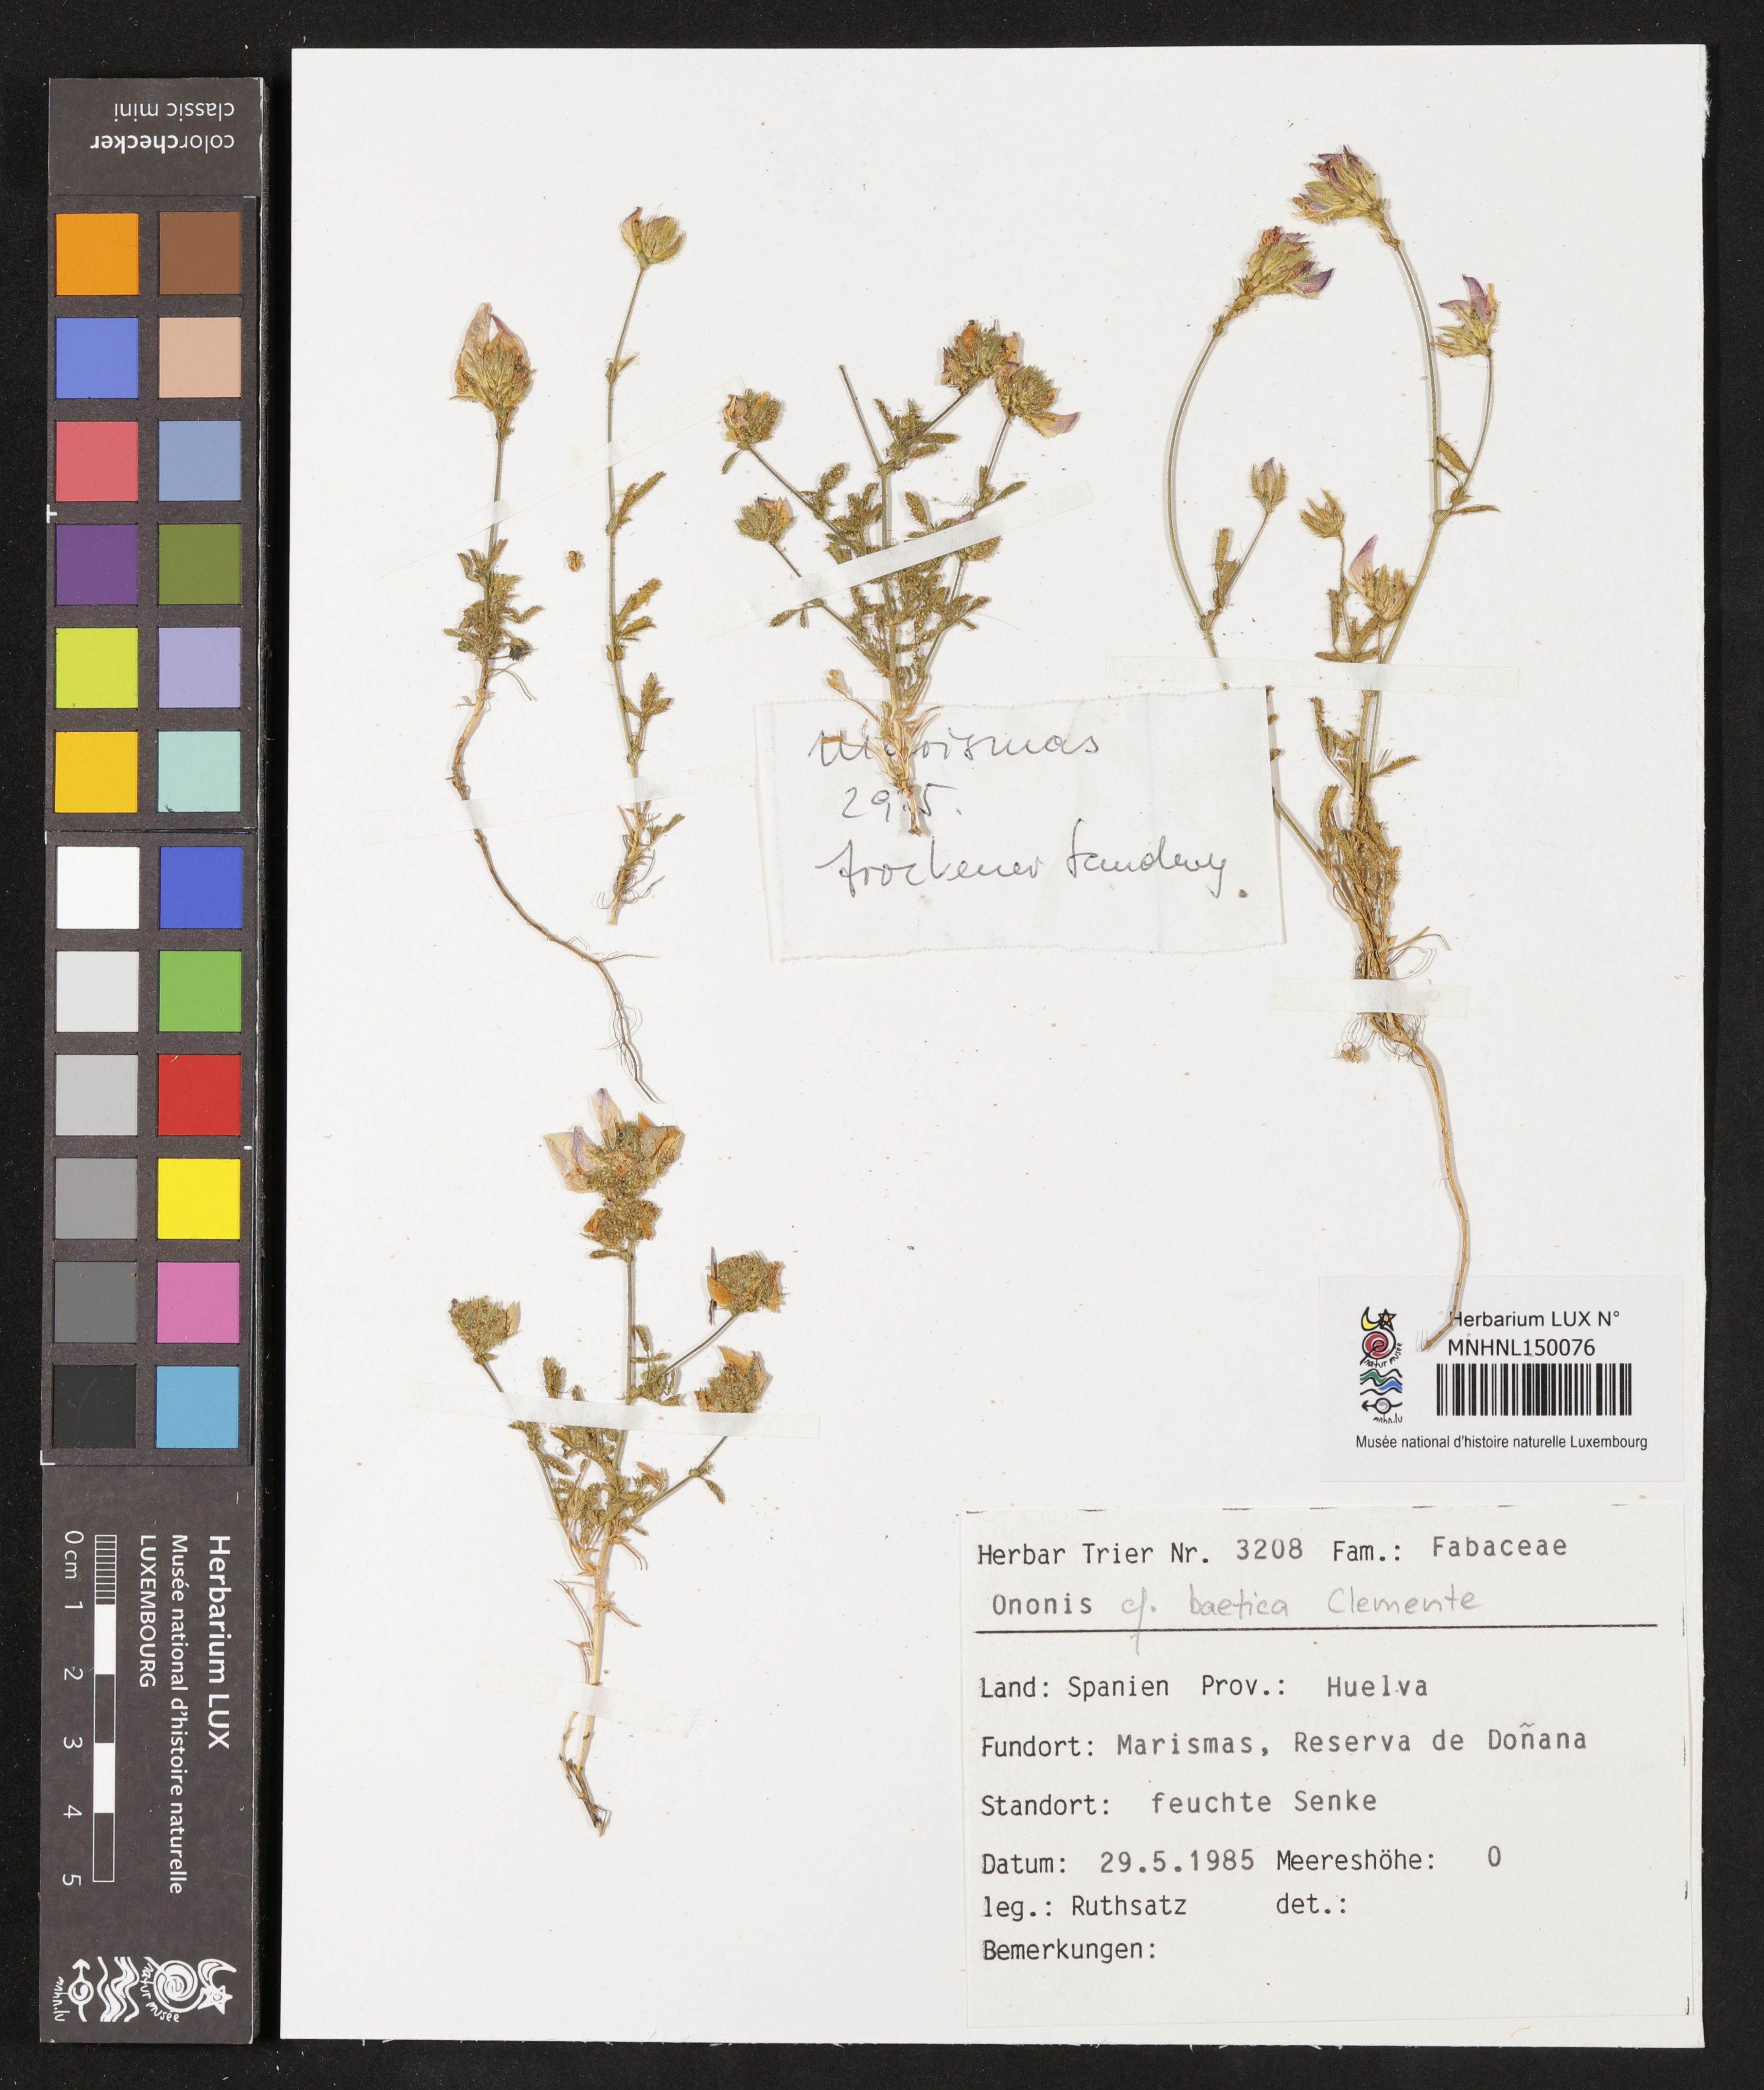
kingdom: Plantae
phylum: Tracheophyta
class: Magnoliopsida
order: Fabales
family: Fabaceae
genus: Ononis
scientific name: Ononis baetica
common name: Andalucian restharrow
